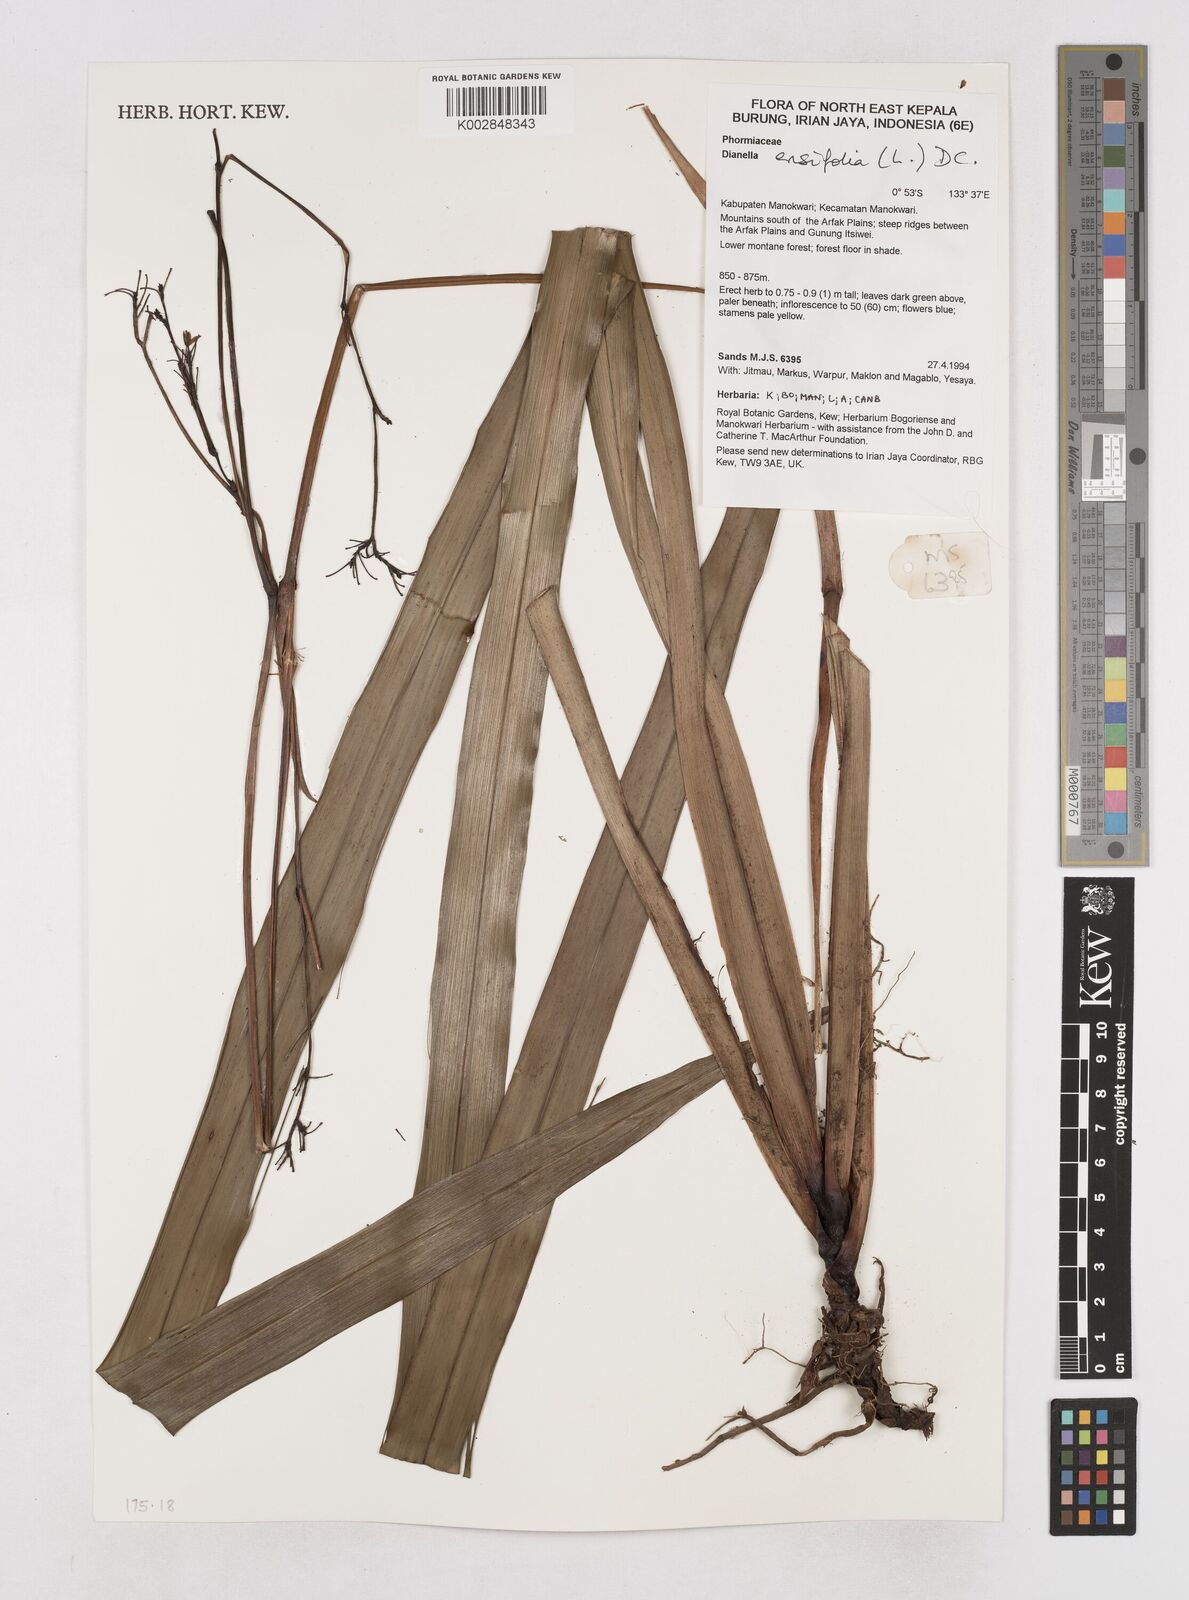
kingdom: Plantae
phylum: Tracheophyta
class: Liliopsida
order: Asparagales
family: Asphodelaceae
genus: Dianella
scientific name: Dianella ensifolia
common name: New zealand lilyplant
